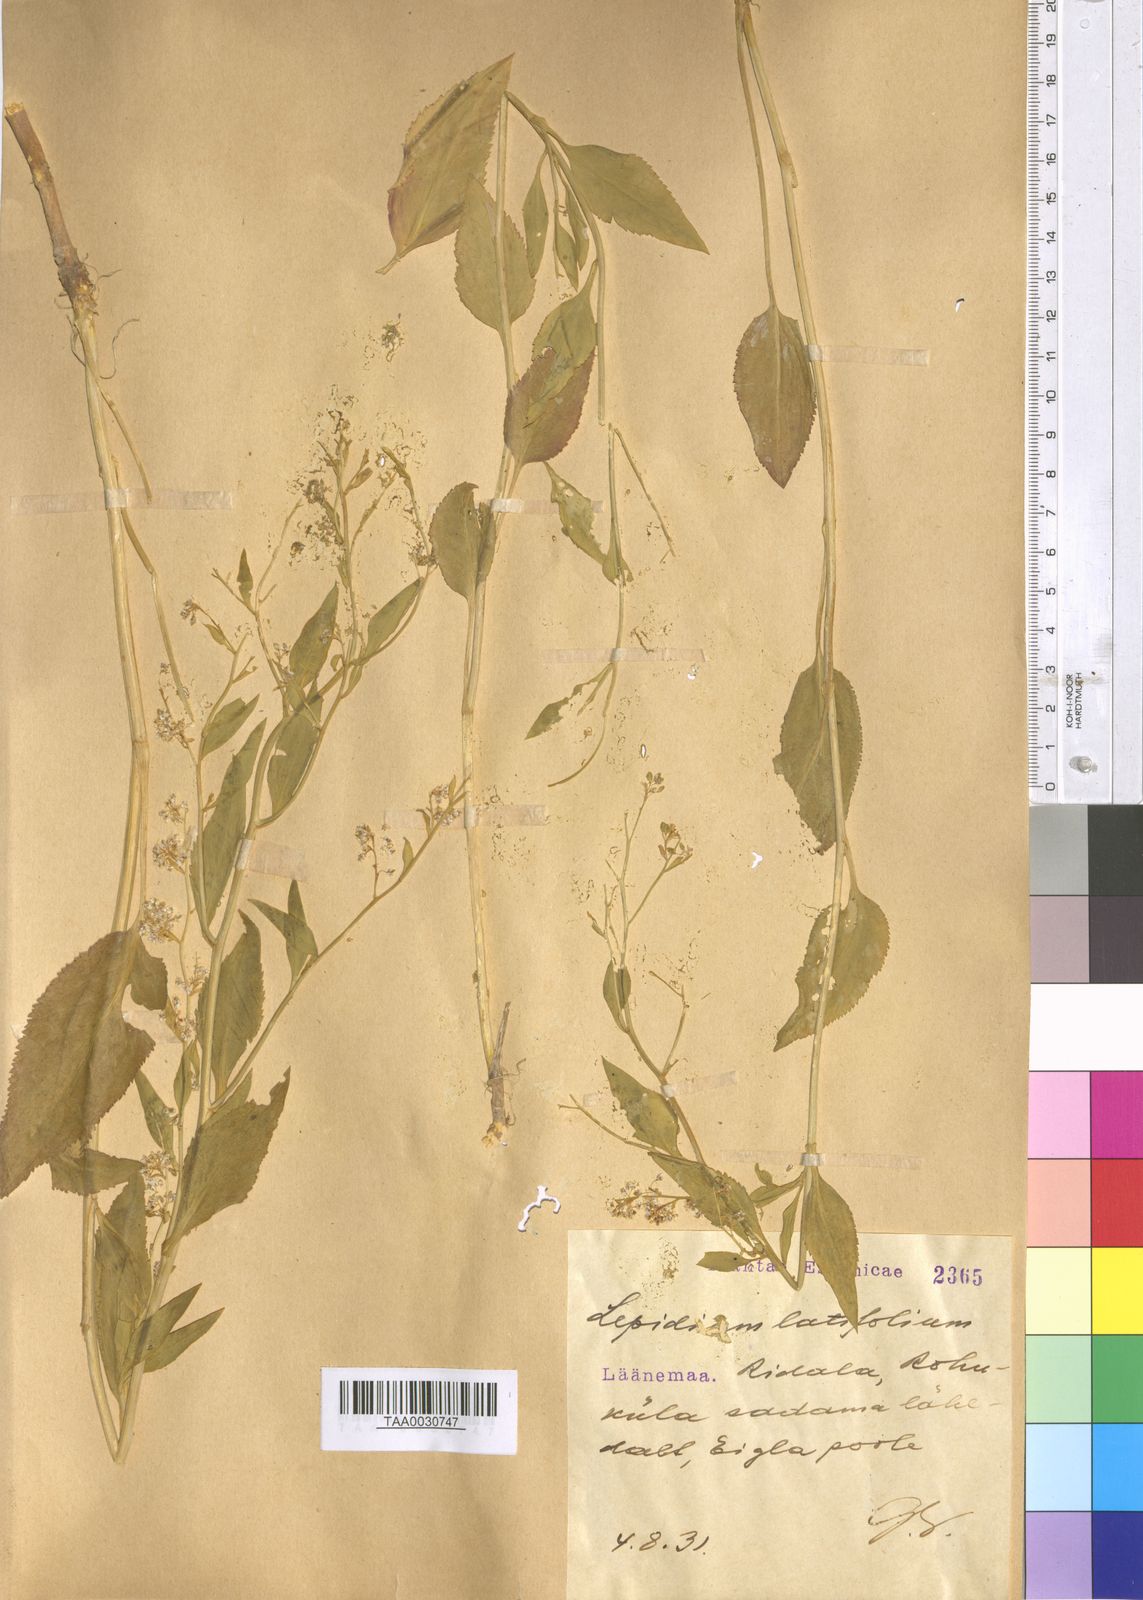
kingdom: Plantae
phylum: Tracheophyta
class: Magnoliopsida
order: Brassicales
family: Brassicaceae
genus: Lepidium
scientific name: Lepidium latifolium
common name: Dittander
